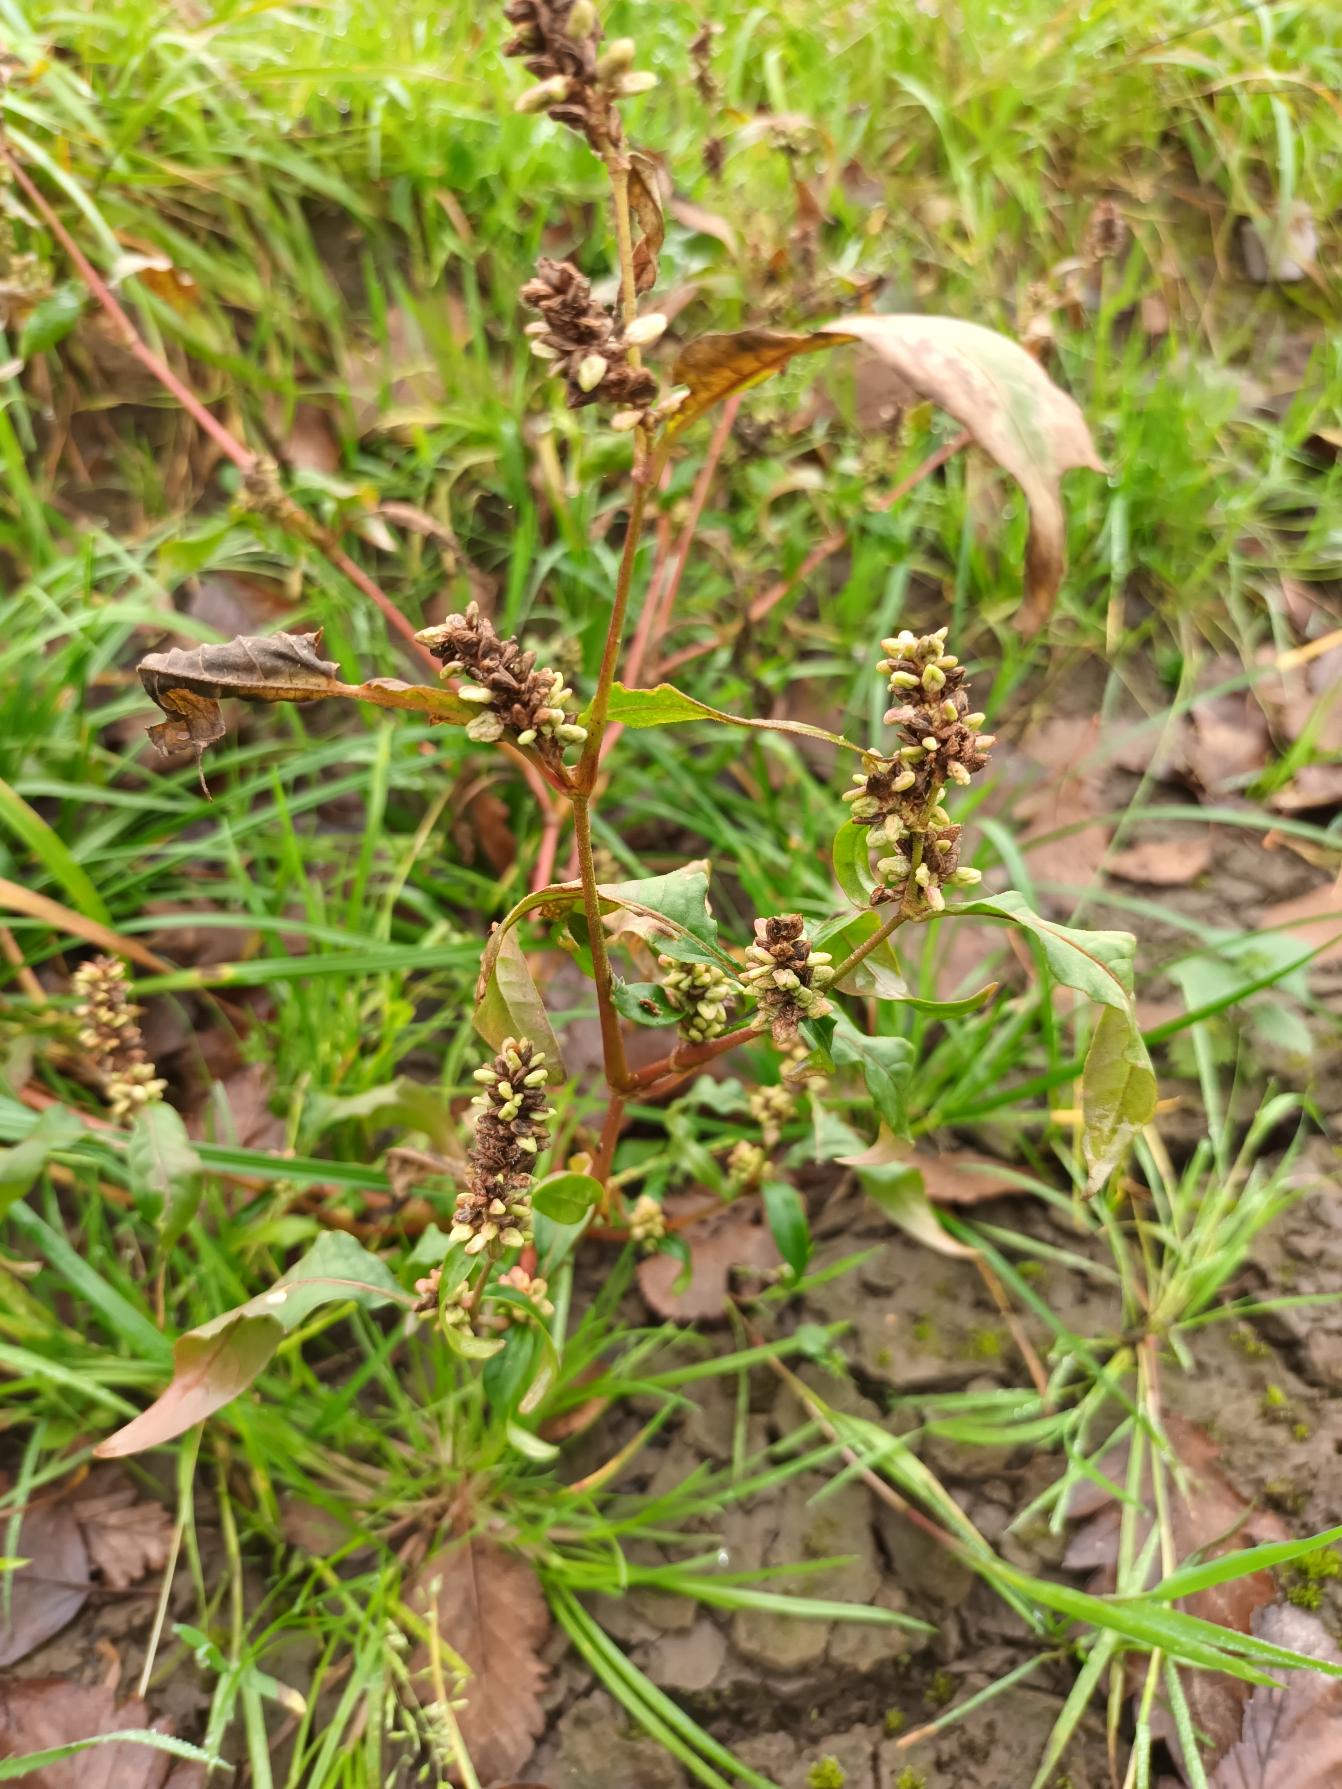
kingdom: Plantae
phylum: Tracheophyta
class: Magnoliopsida
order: Caryophyllales
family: Polygonaceae
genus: Persicaria
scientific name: Persicaria lapathifolia
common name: Knudet pileurt
